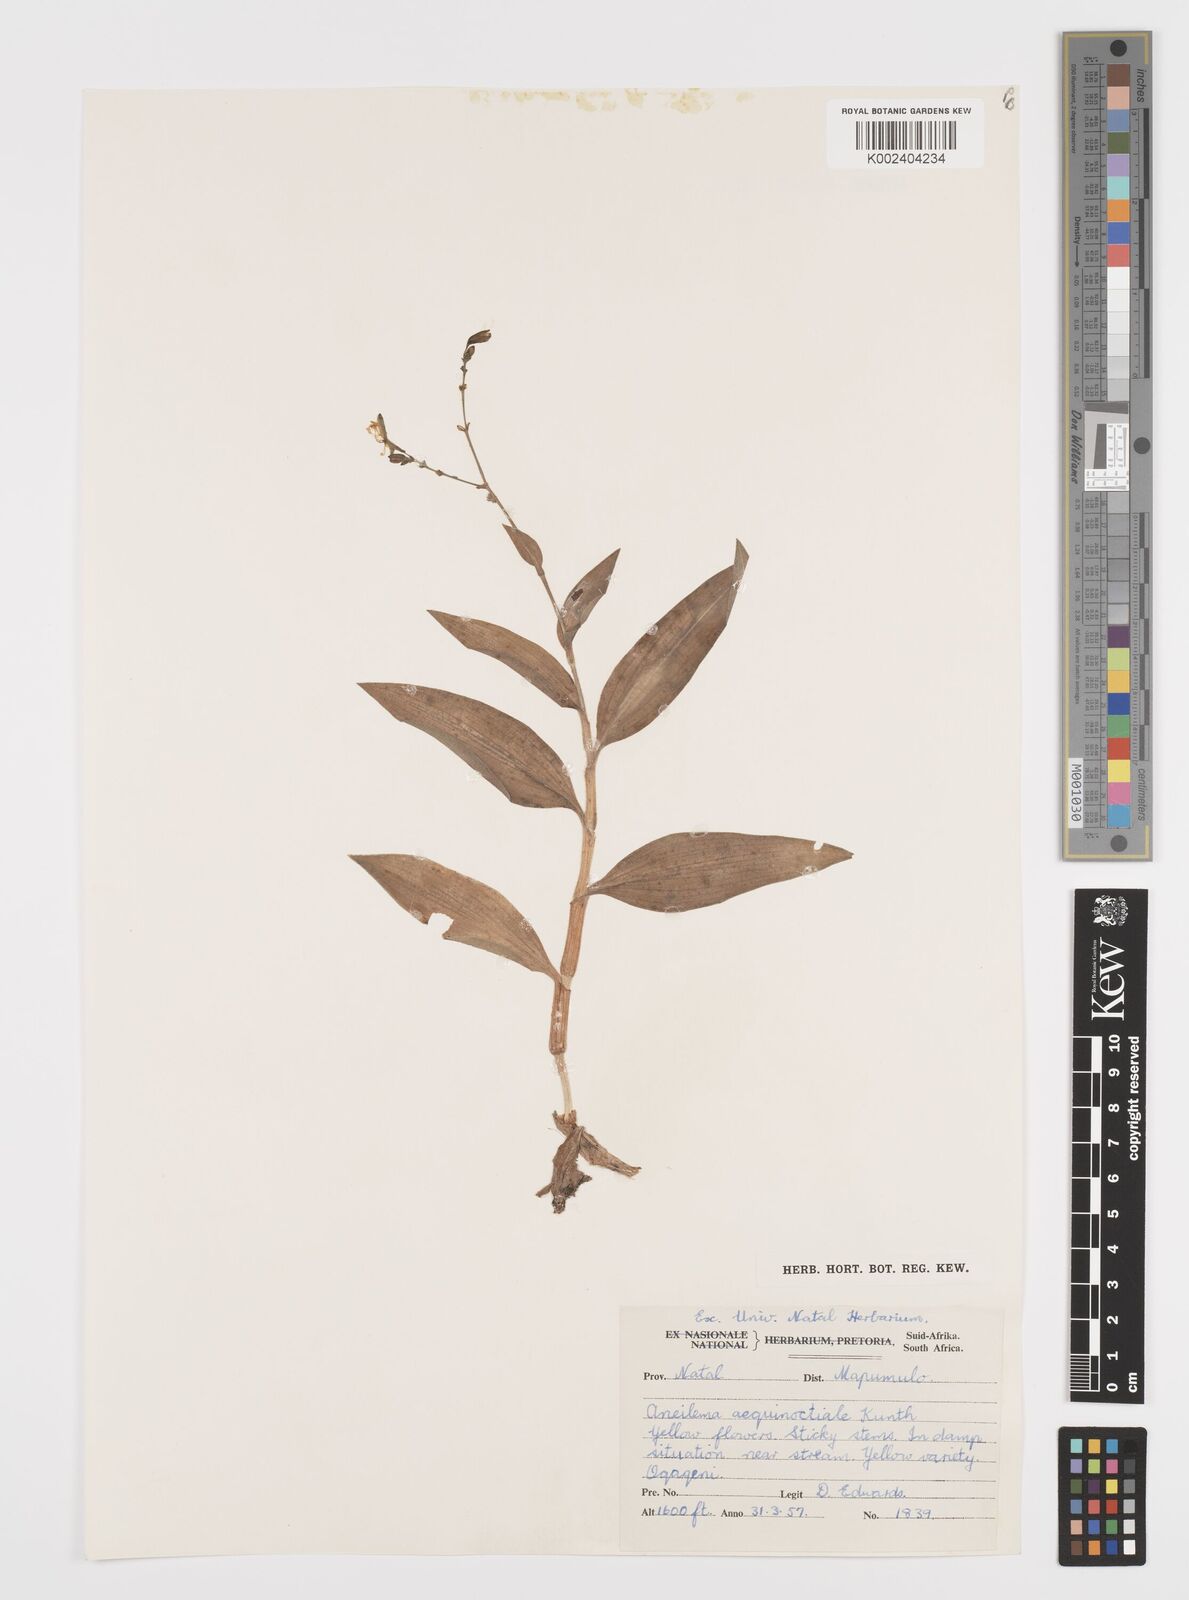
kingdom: Plantae
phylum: Tracheophyta
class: Liliopsida
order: Commelinales
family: Commelinaceae
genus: Aneilema
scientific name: Aneilema aequinoctiale
